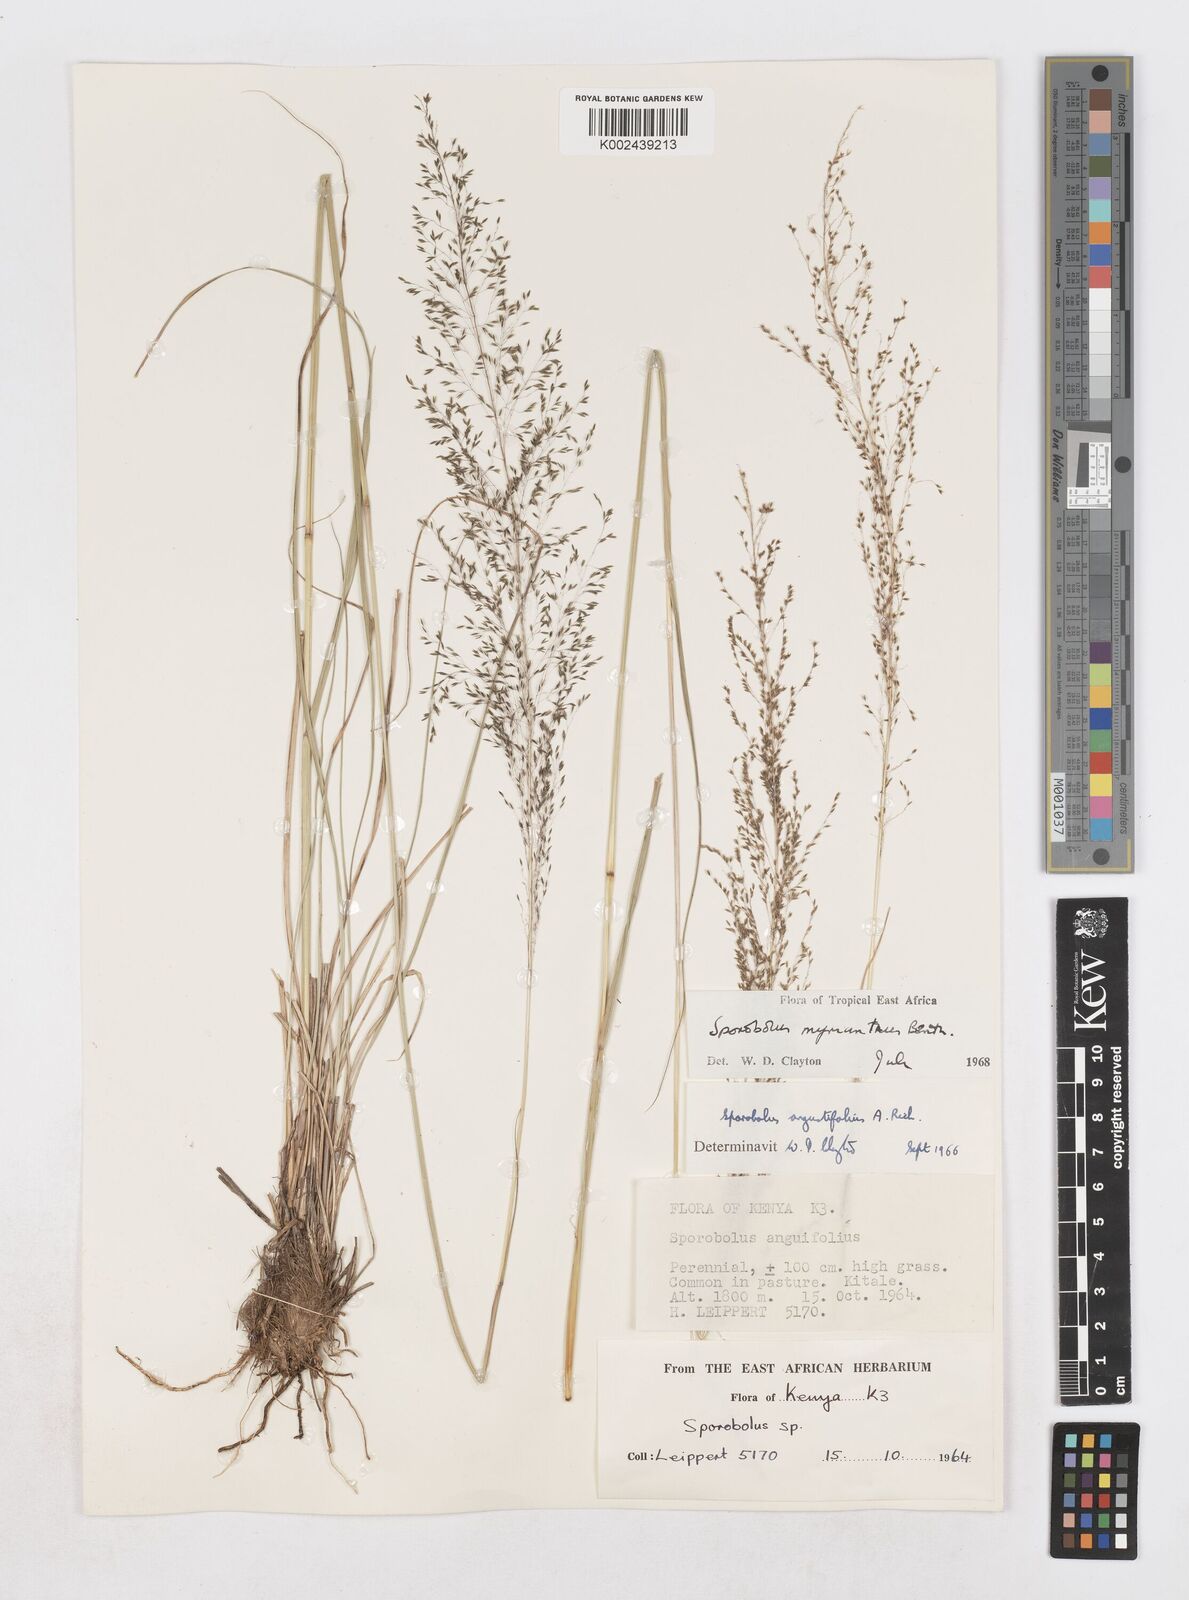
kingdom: Plantae
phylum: Tracheophyta
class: Liliopsida
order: Poales
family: Poaceae
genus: Sporobolus
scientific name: Sporobolus myrianthus
